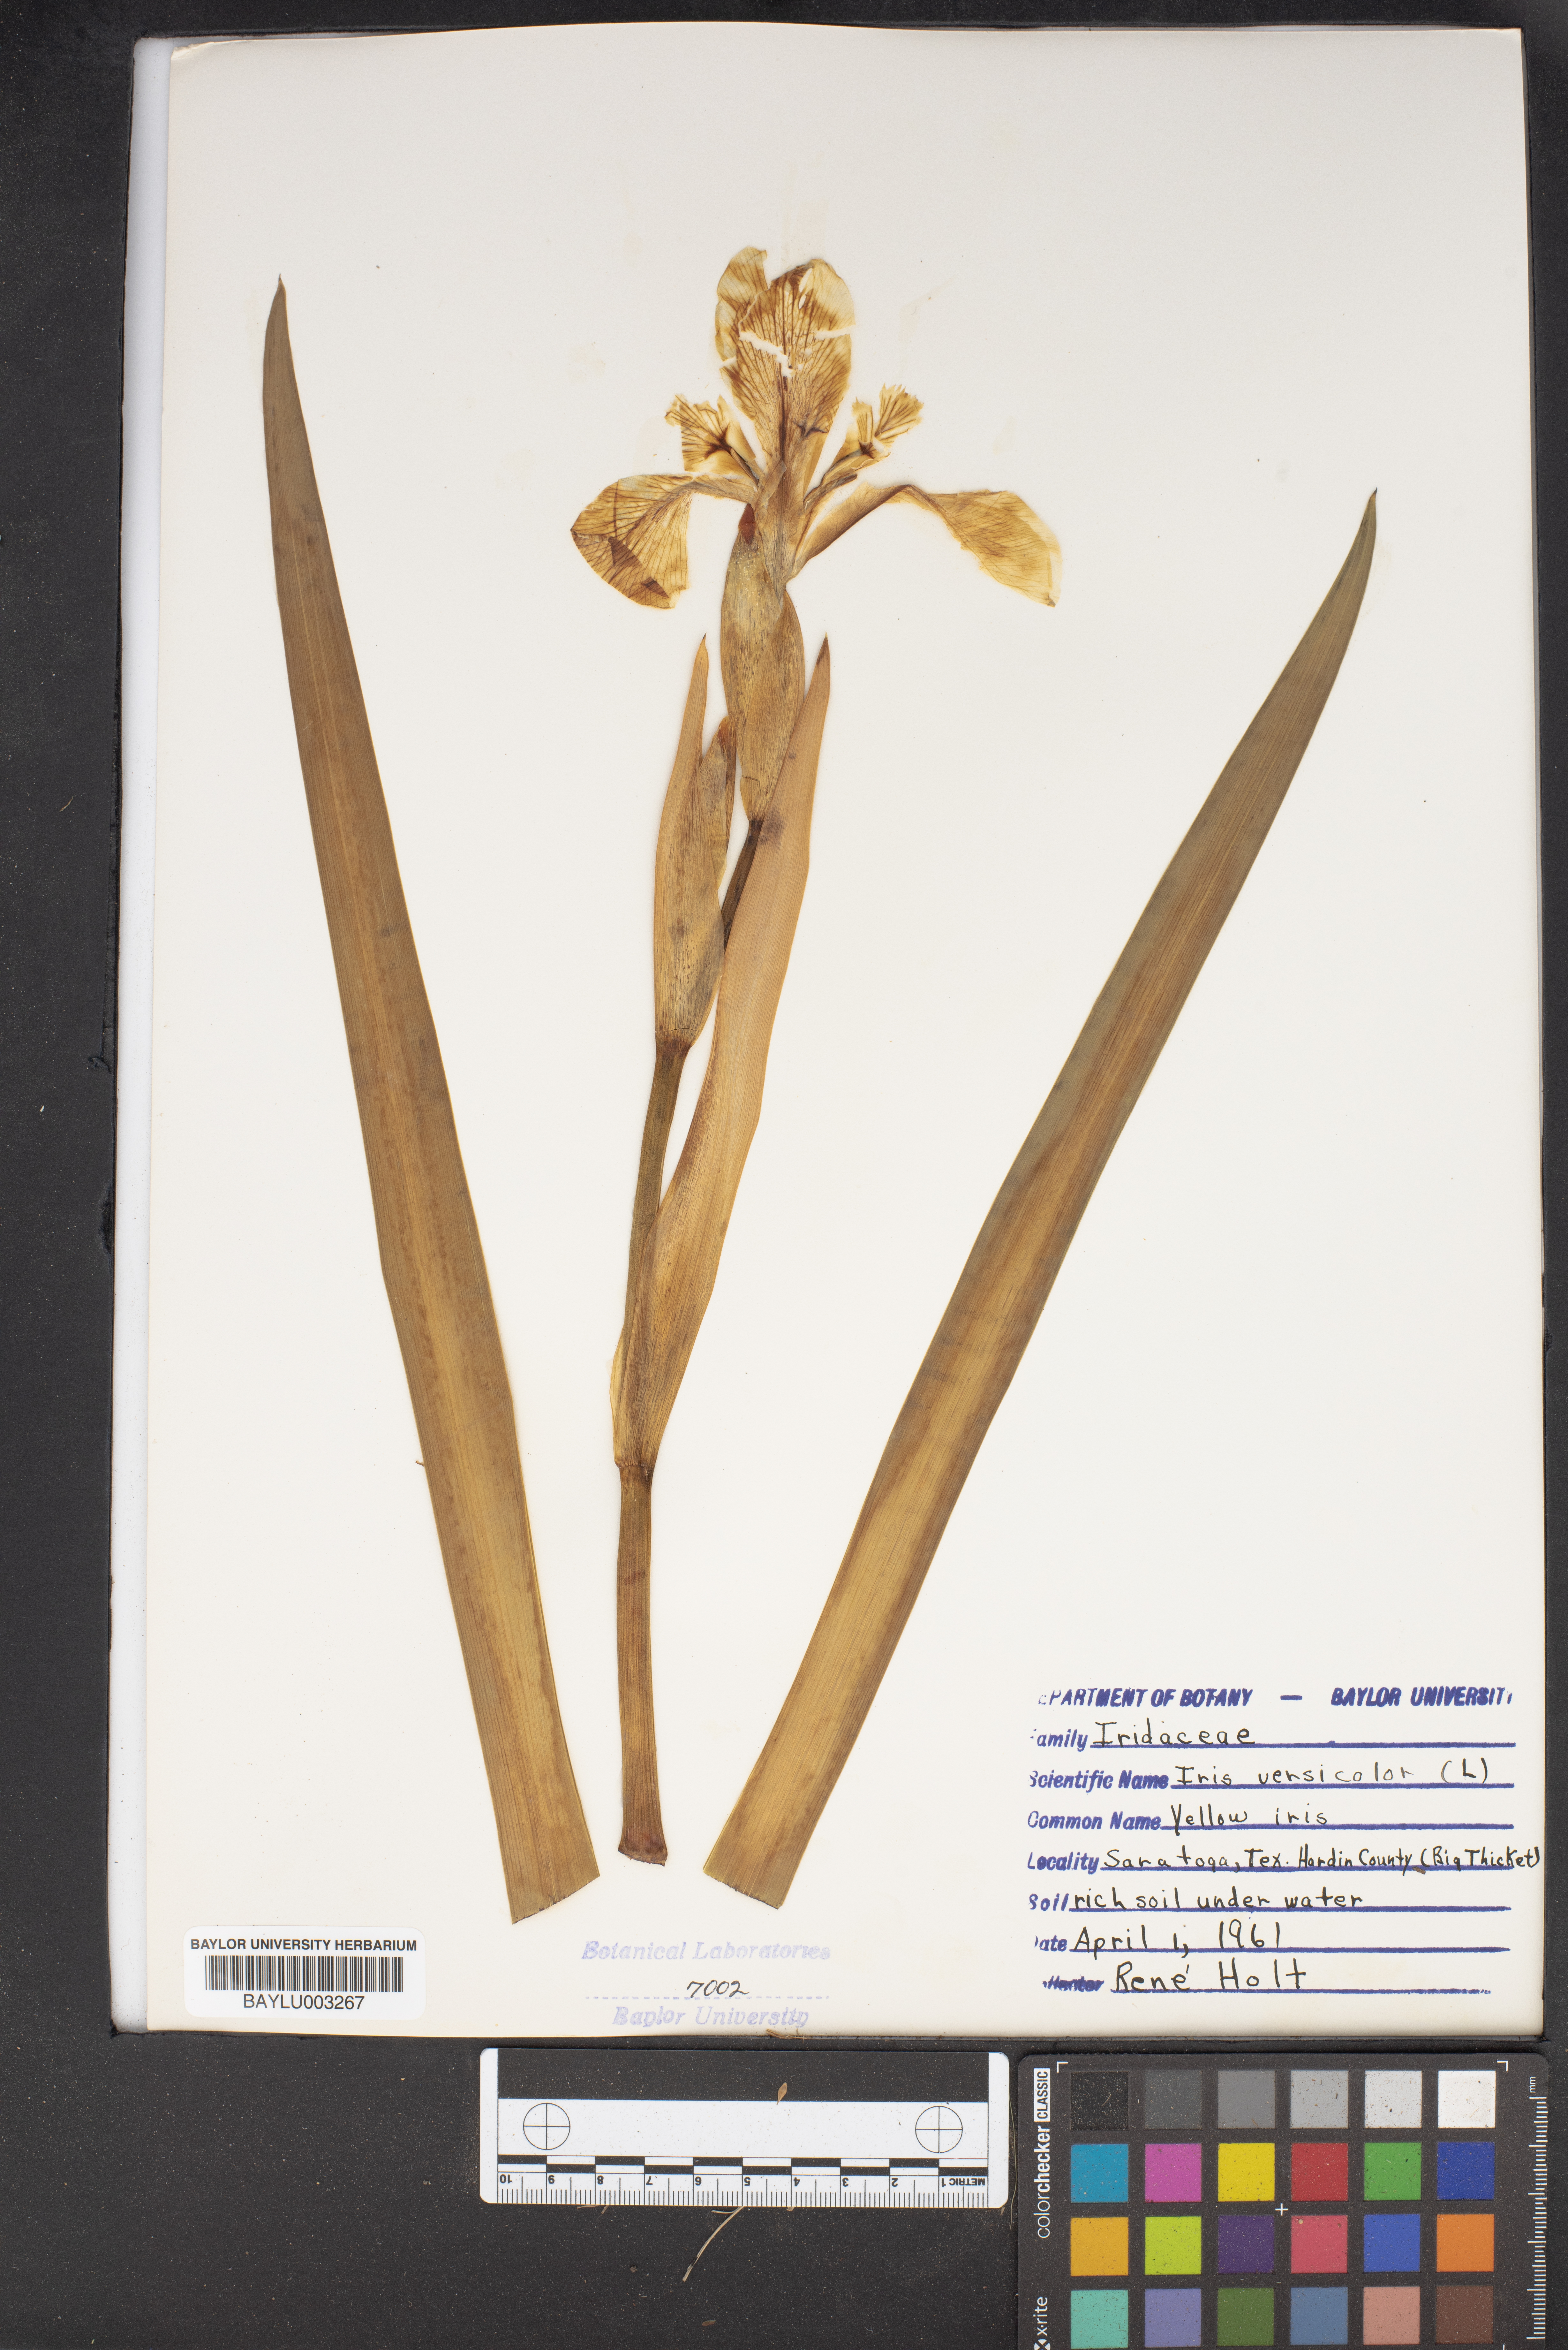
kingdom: Plantae
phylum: Tracheophyta
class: Liliopsida
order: Asparagales
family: Iridaceae
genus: Iris
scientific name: Iris versicolor
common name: Purple iris
